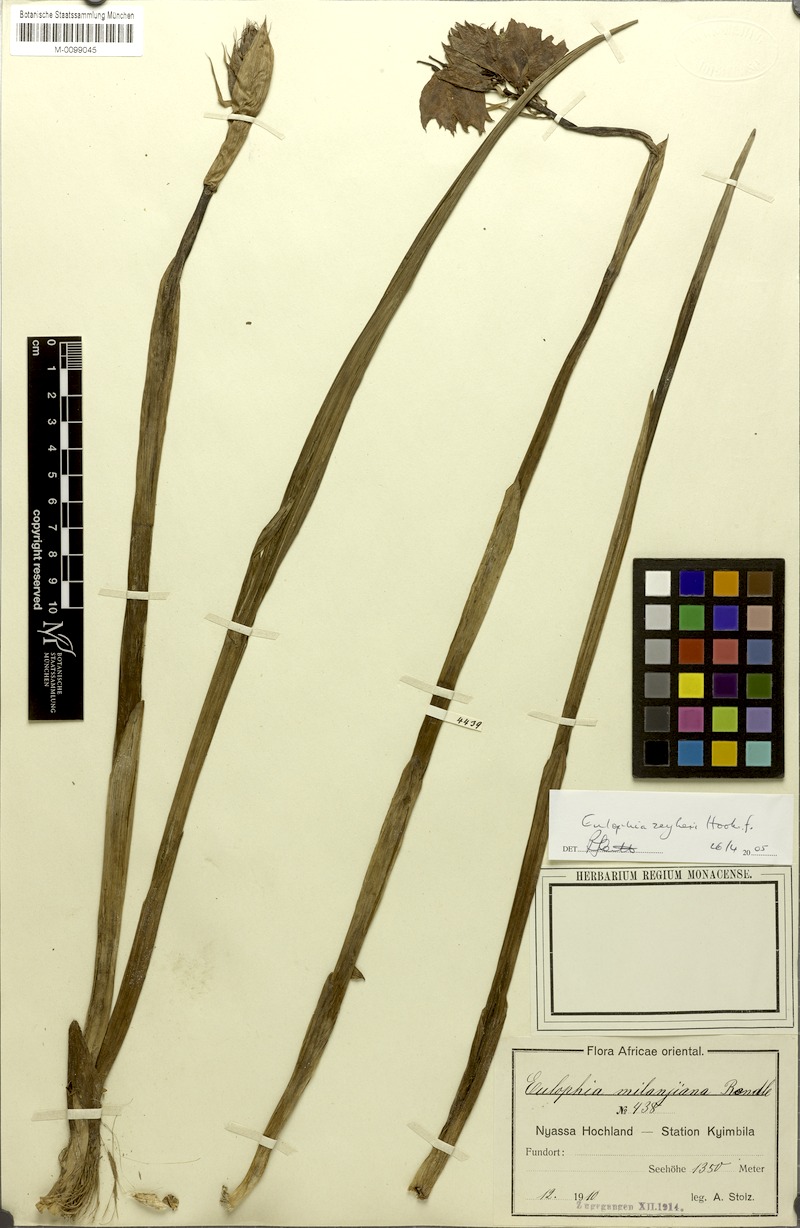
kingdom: Plantae
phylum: Tracheophyta
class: Liliopsida
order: Asparagales
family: Orchidaceae
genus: Eulophia
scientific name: Eulophia mechowii
